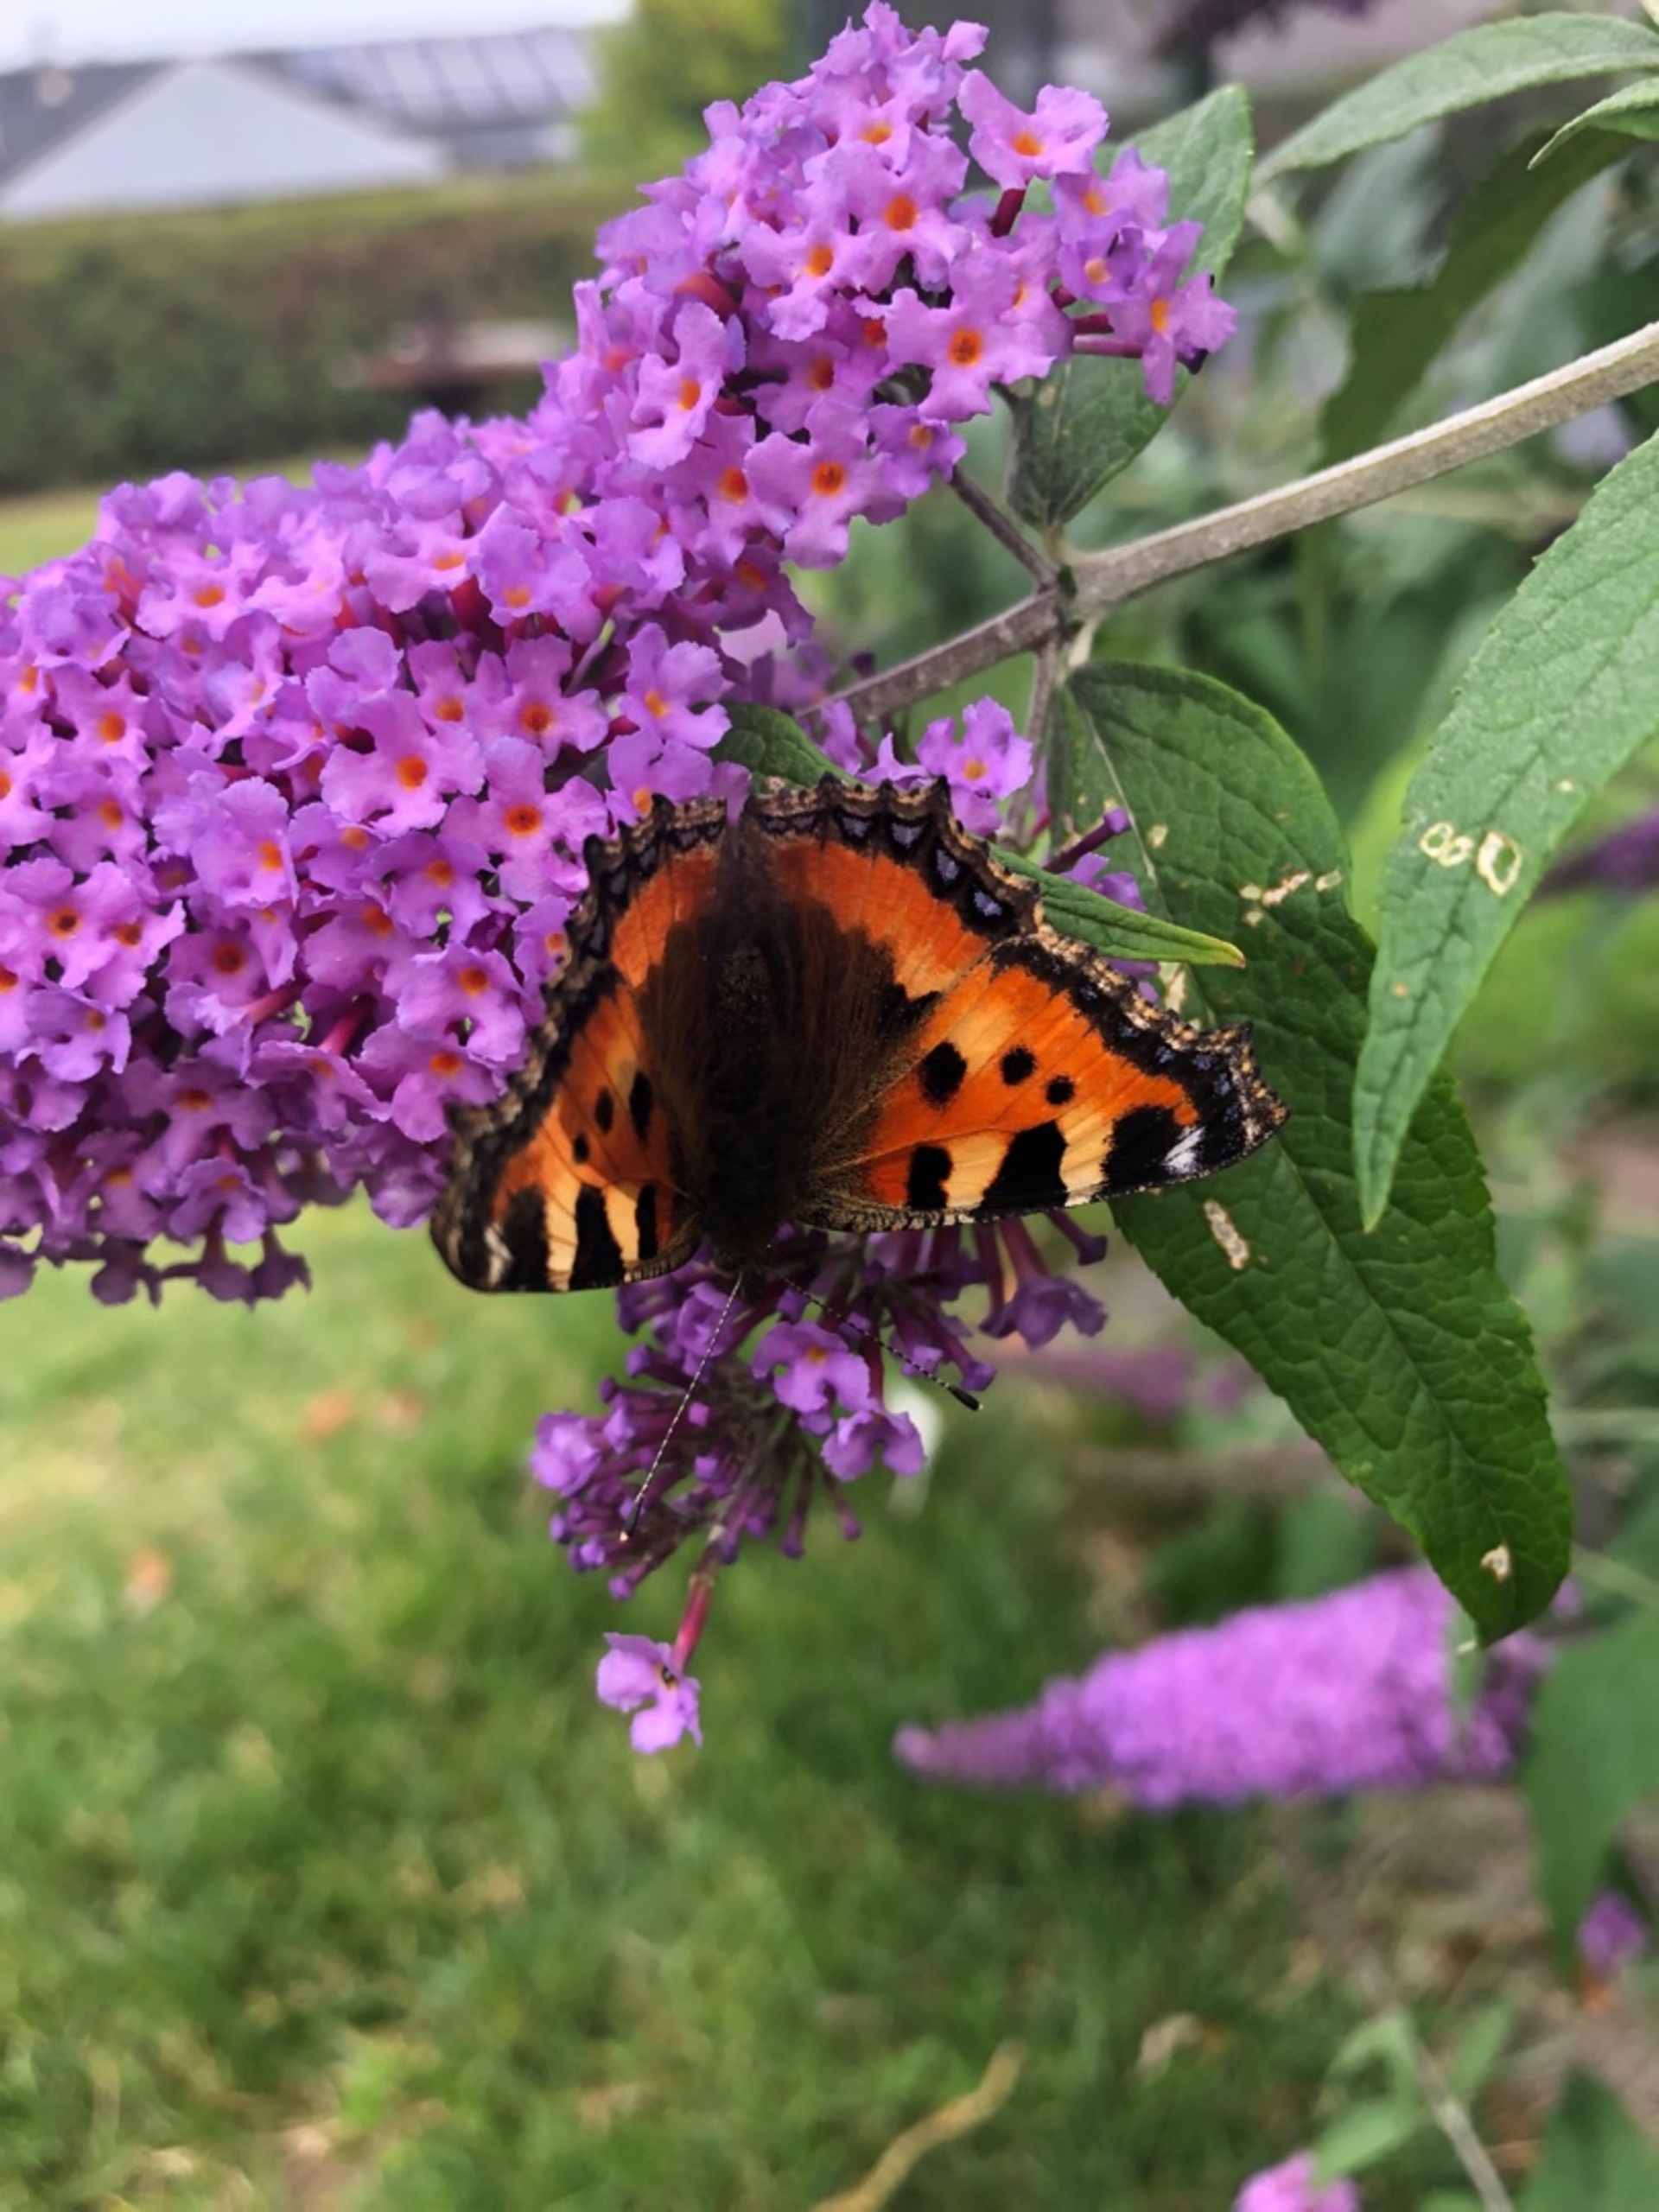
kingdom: Animalia
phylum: Arthropoda
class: Insecta
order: Lepidoptera
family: Nymphalidae
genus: Aglais
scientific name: Aglais urticae
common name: Nældens takvinge
